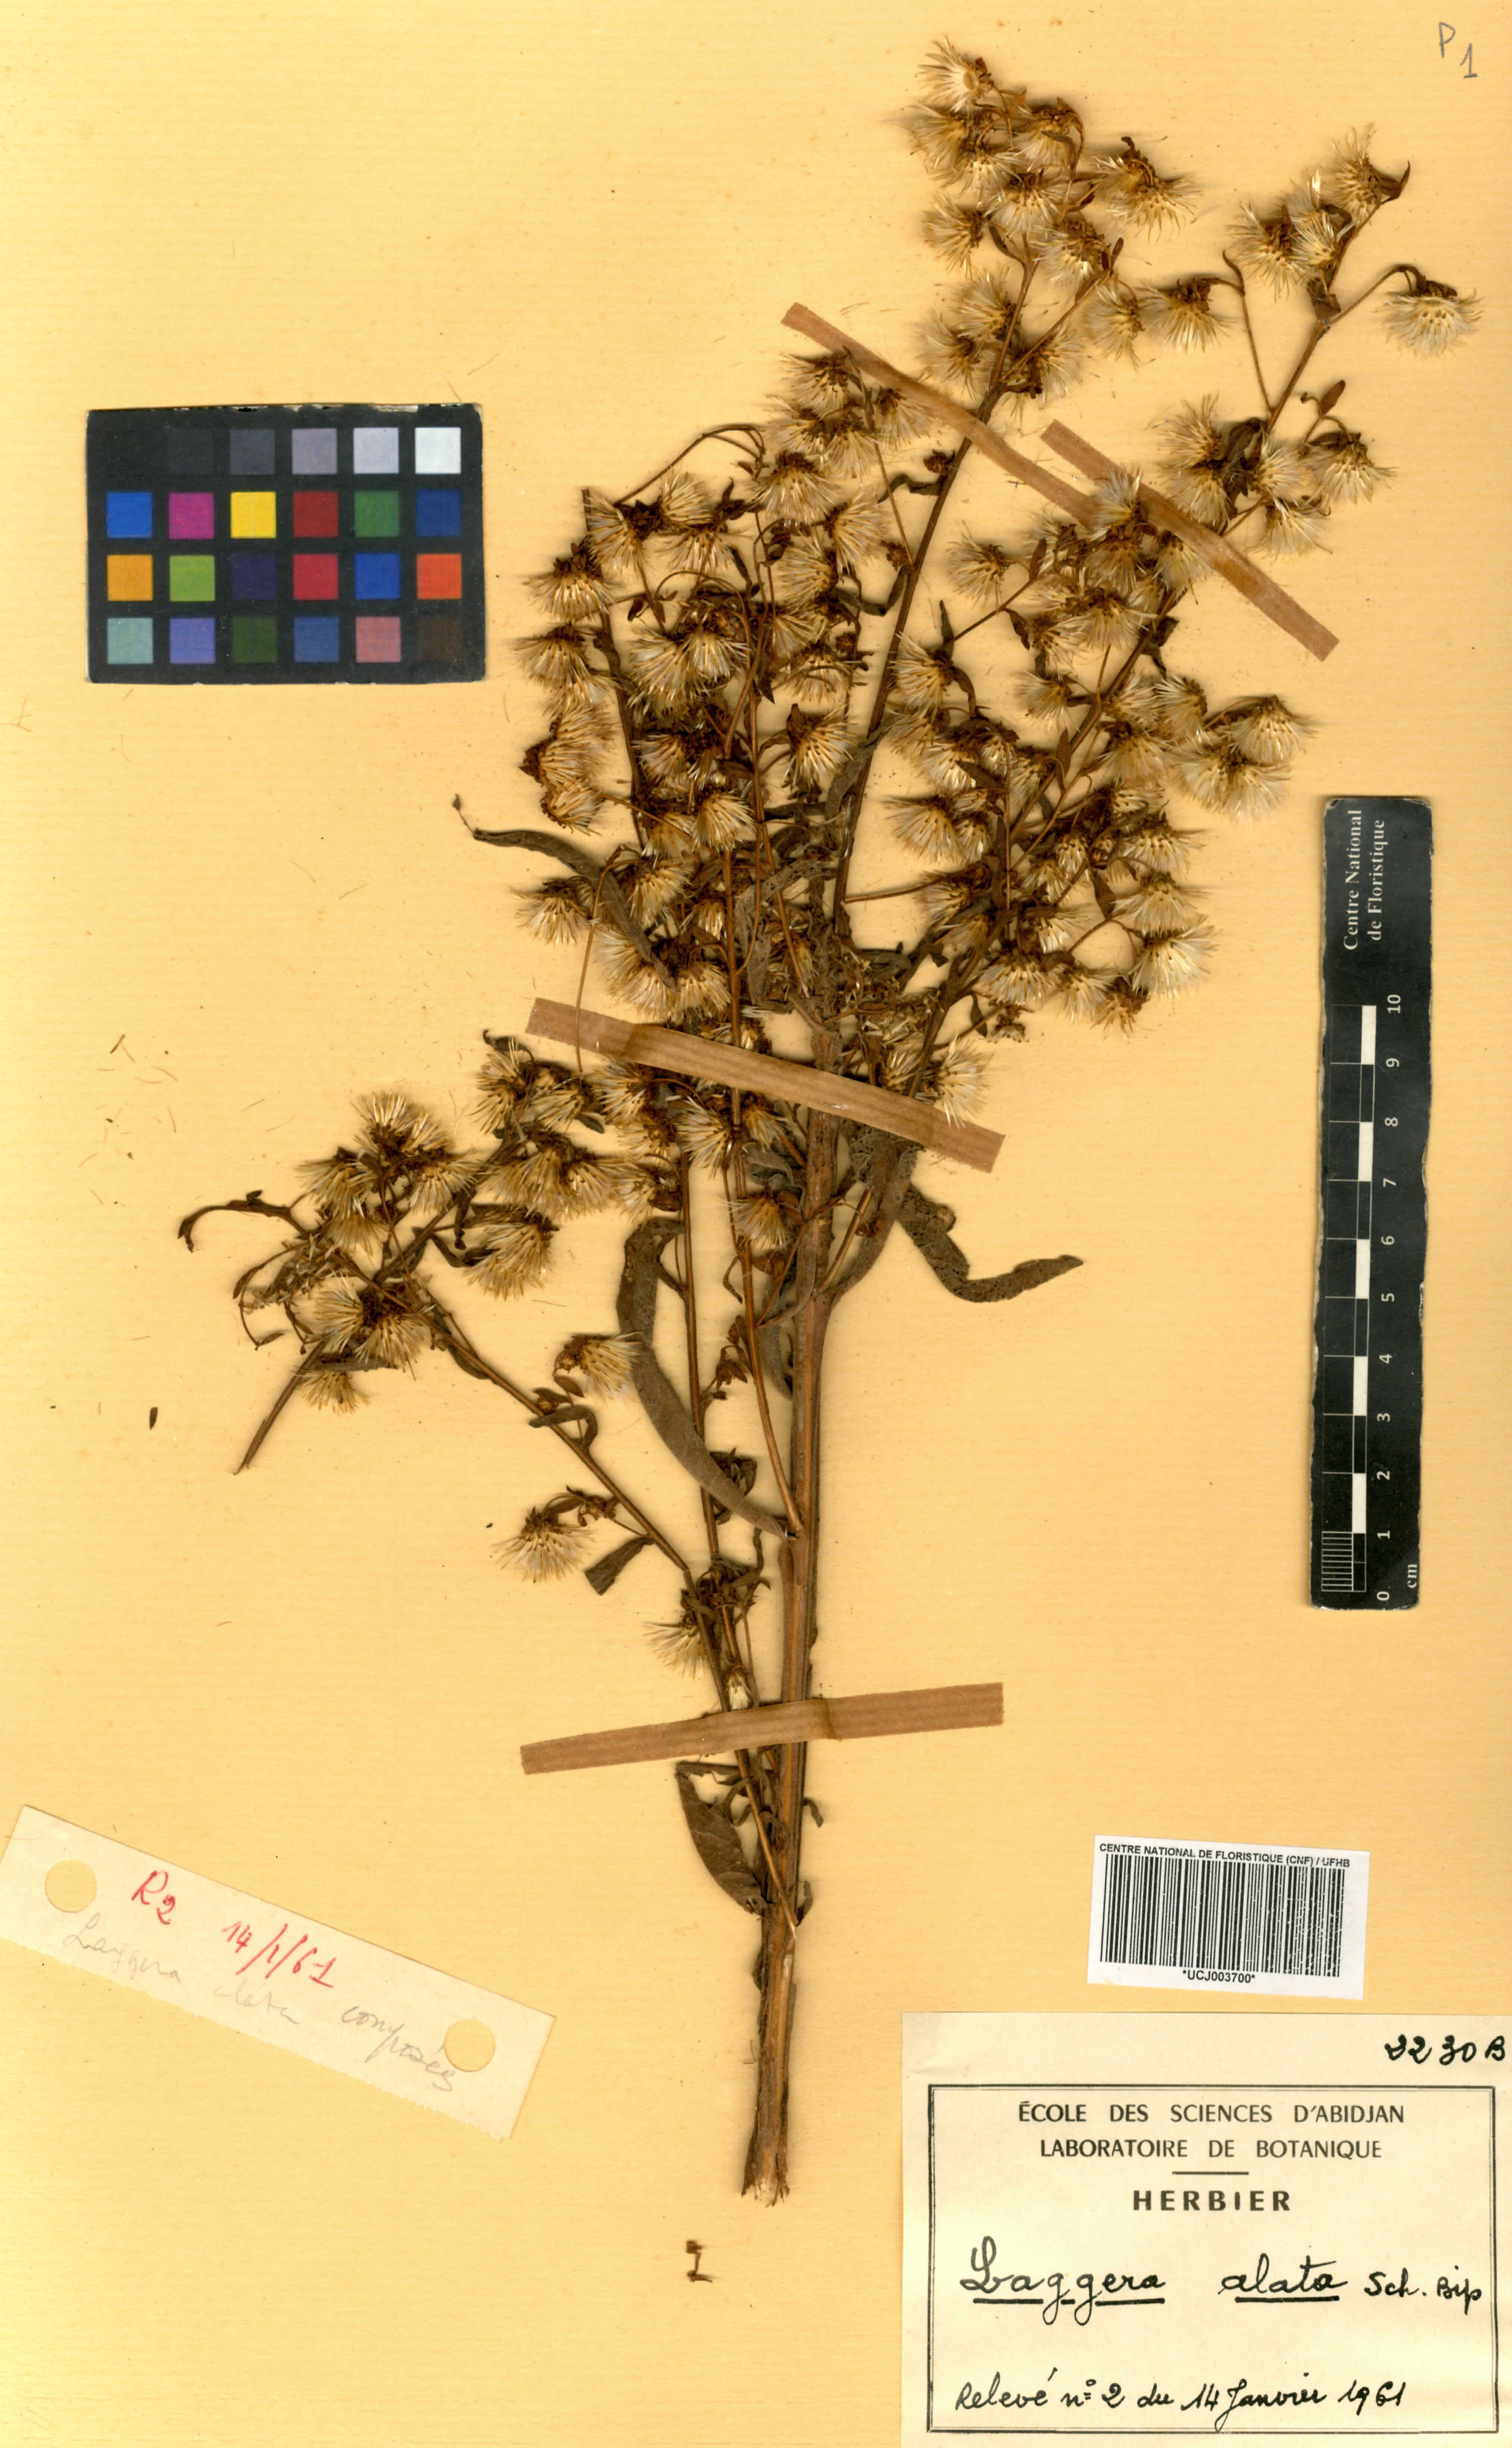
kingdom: Plantae
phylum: Tracheophyta
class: Magnoliopsida
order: Asterales
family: Asteraceae
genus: Laggera
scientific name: Laggera alata
